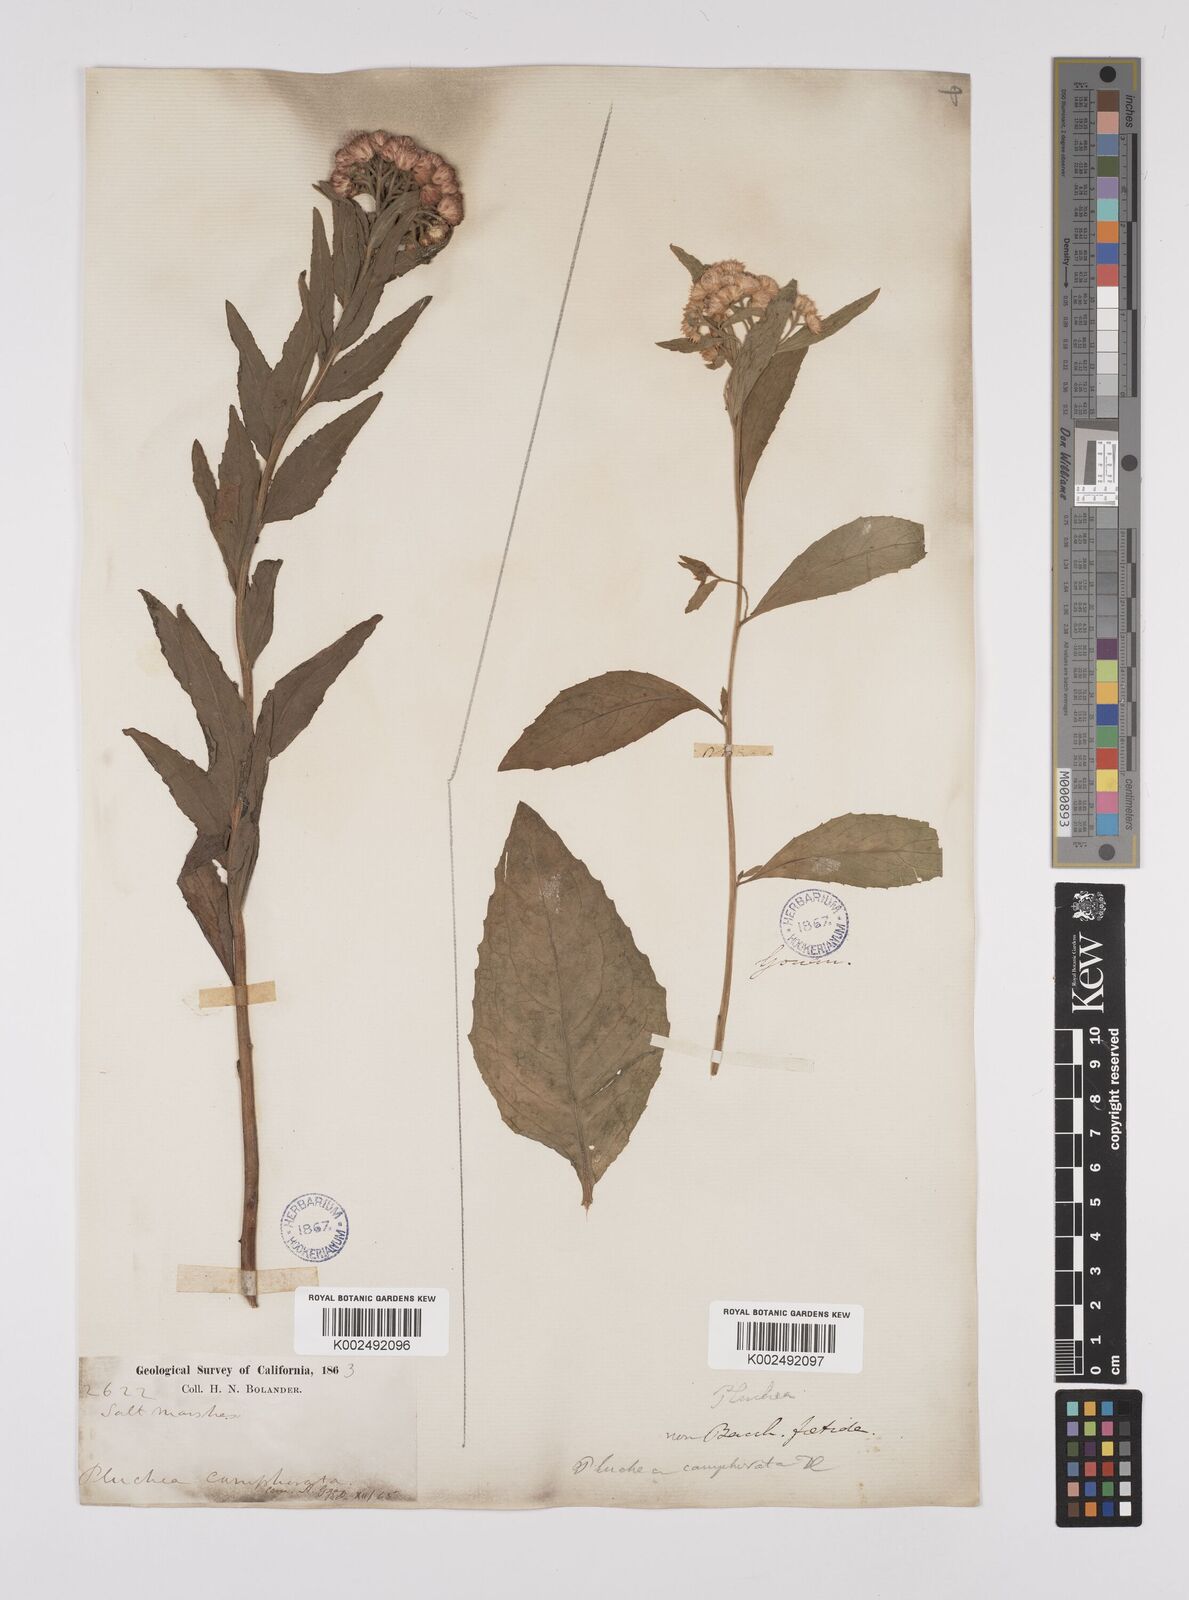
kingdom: Plantae
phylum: Tracheophyta
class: Magnoliopsida
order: Asterales
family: Asteraceae
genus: Pluchea
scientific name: Pluchea camphorata
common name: Camphor pluchea
